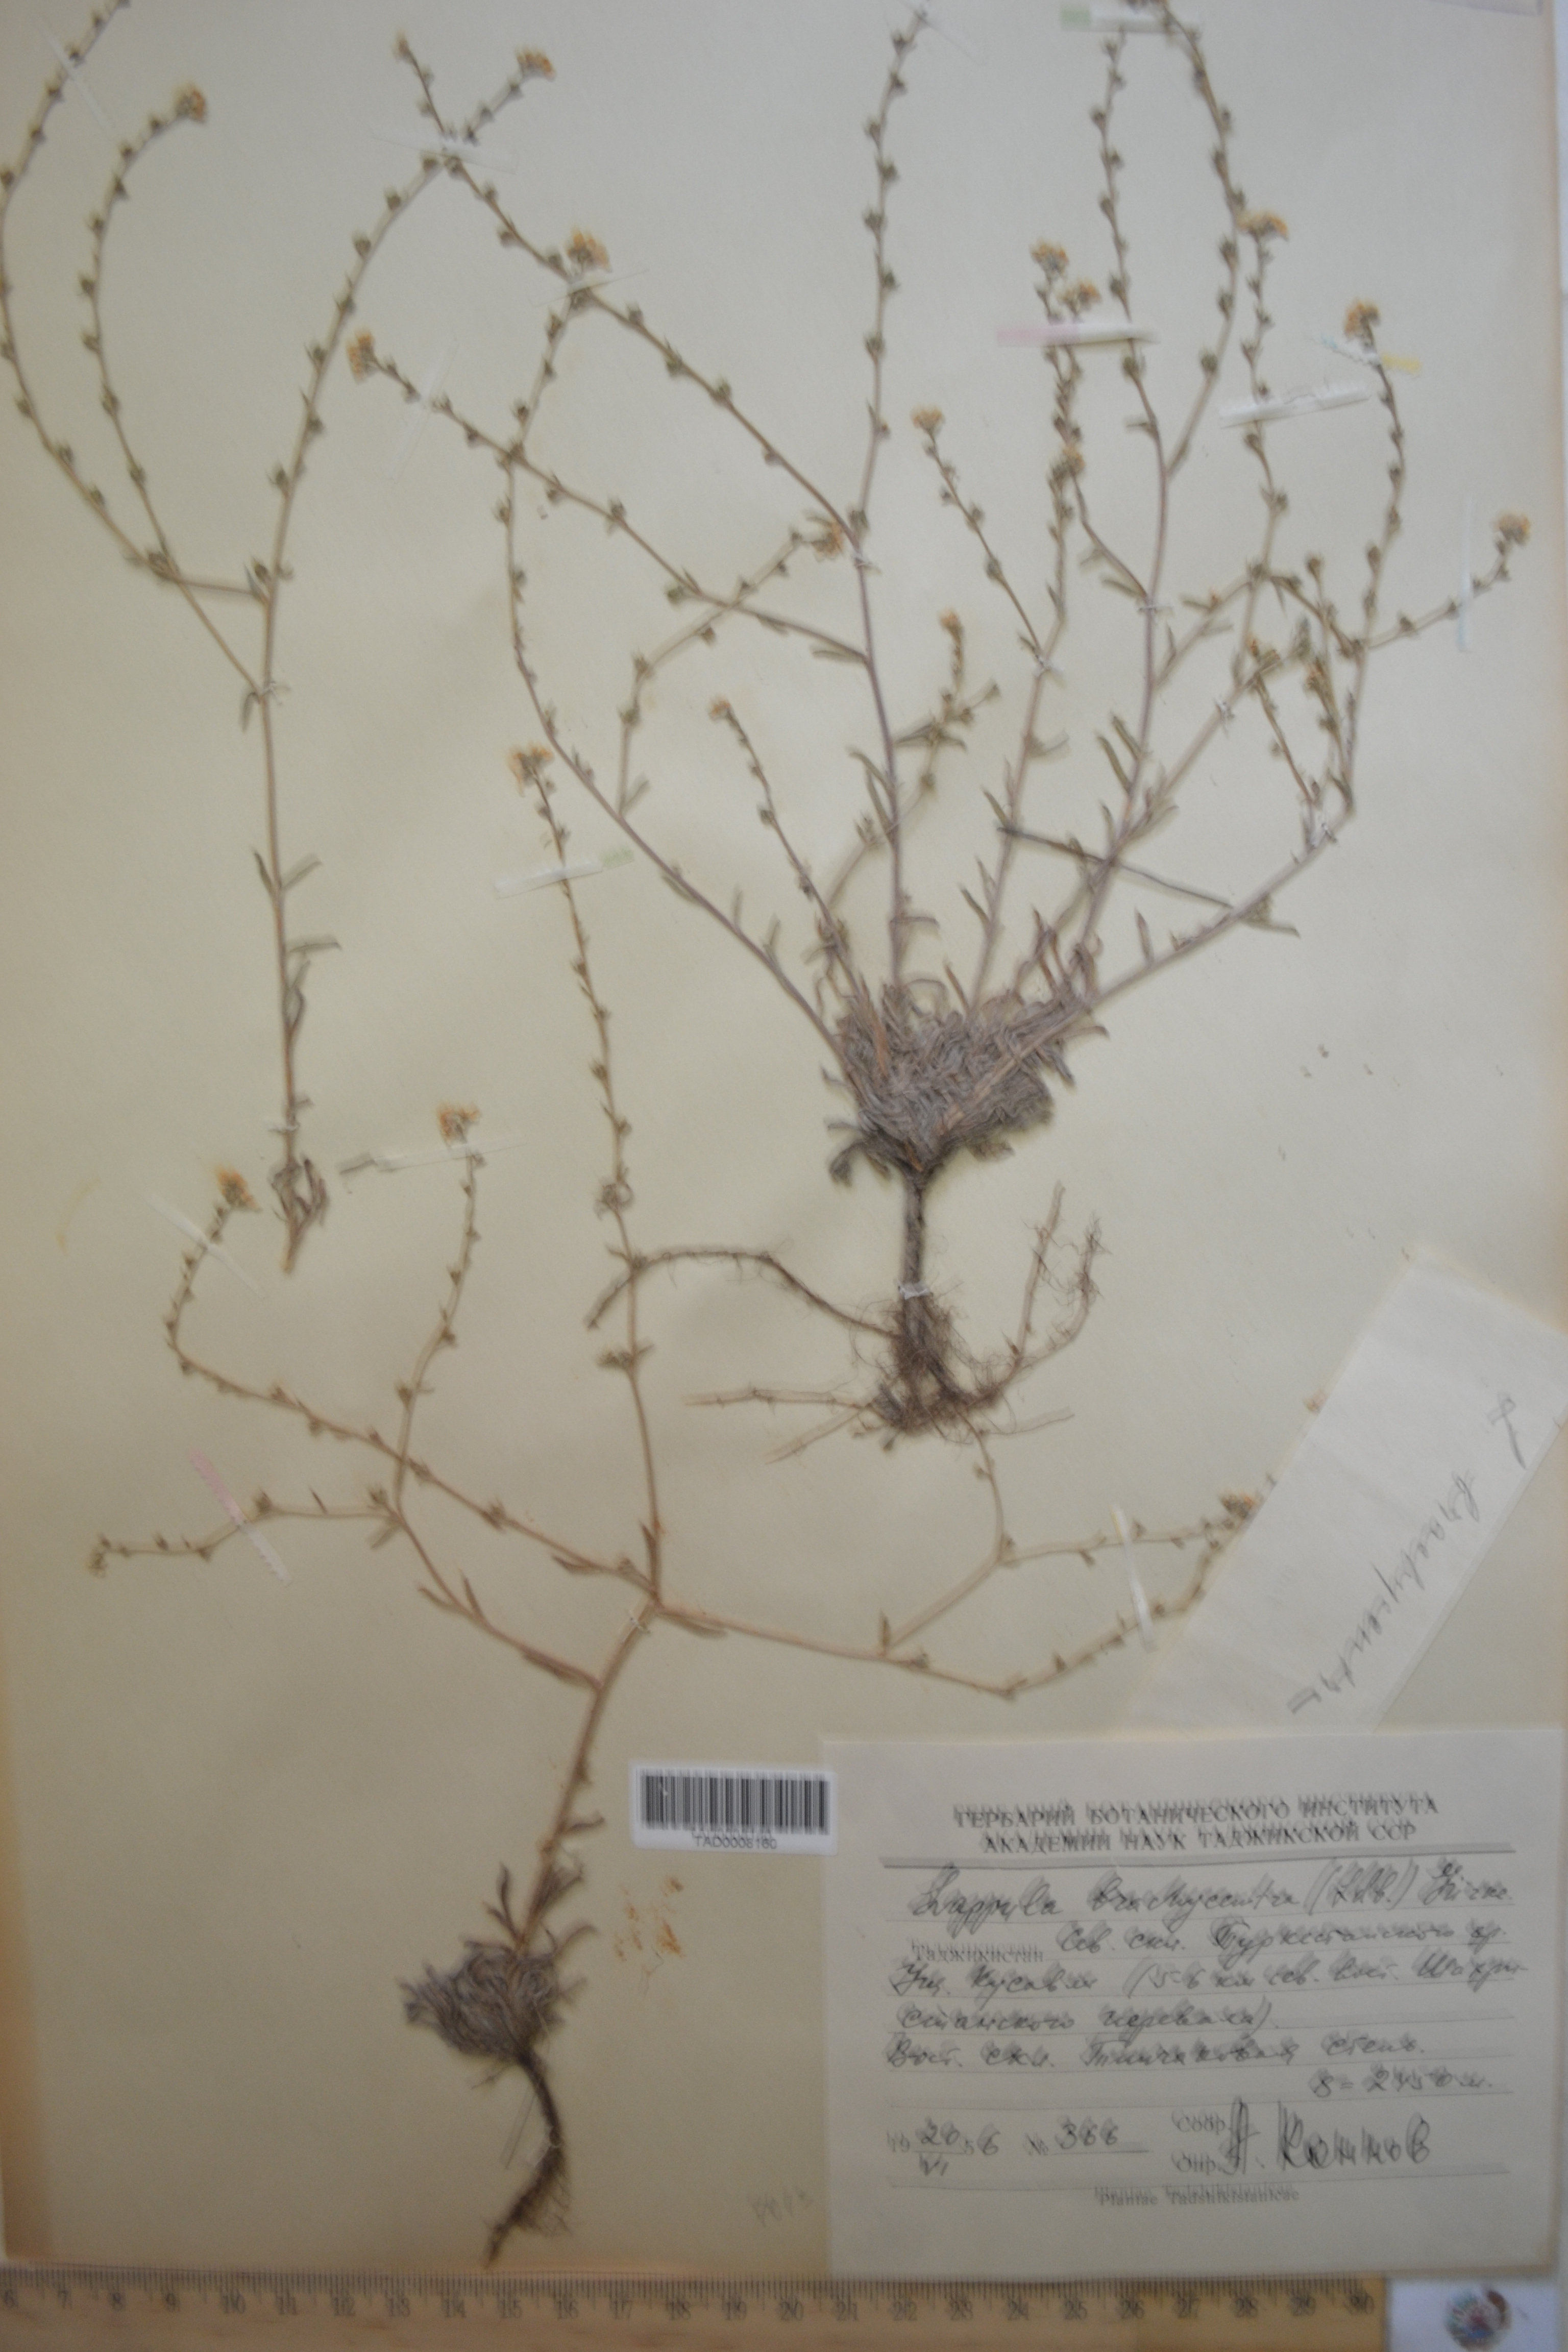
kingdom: Plantae
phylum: Tracheophyta
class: Magnoliopsida
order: Boraginales
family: Boraginaceae
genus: Lappula
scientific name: Lappula brachycentra
